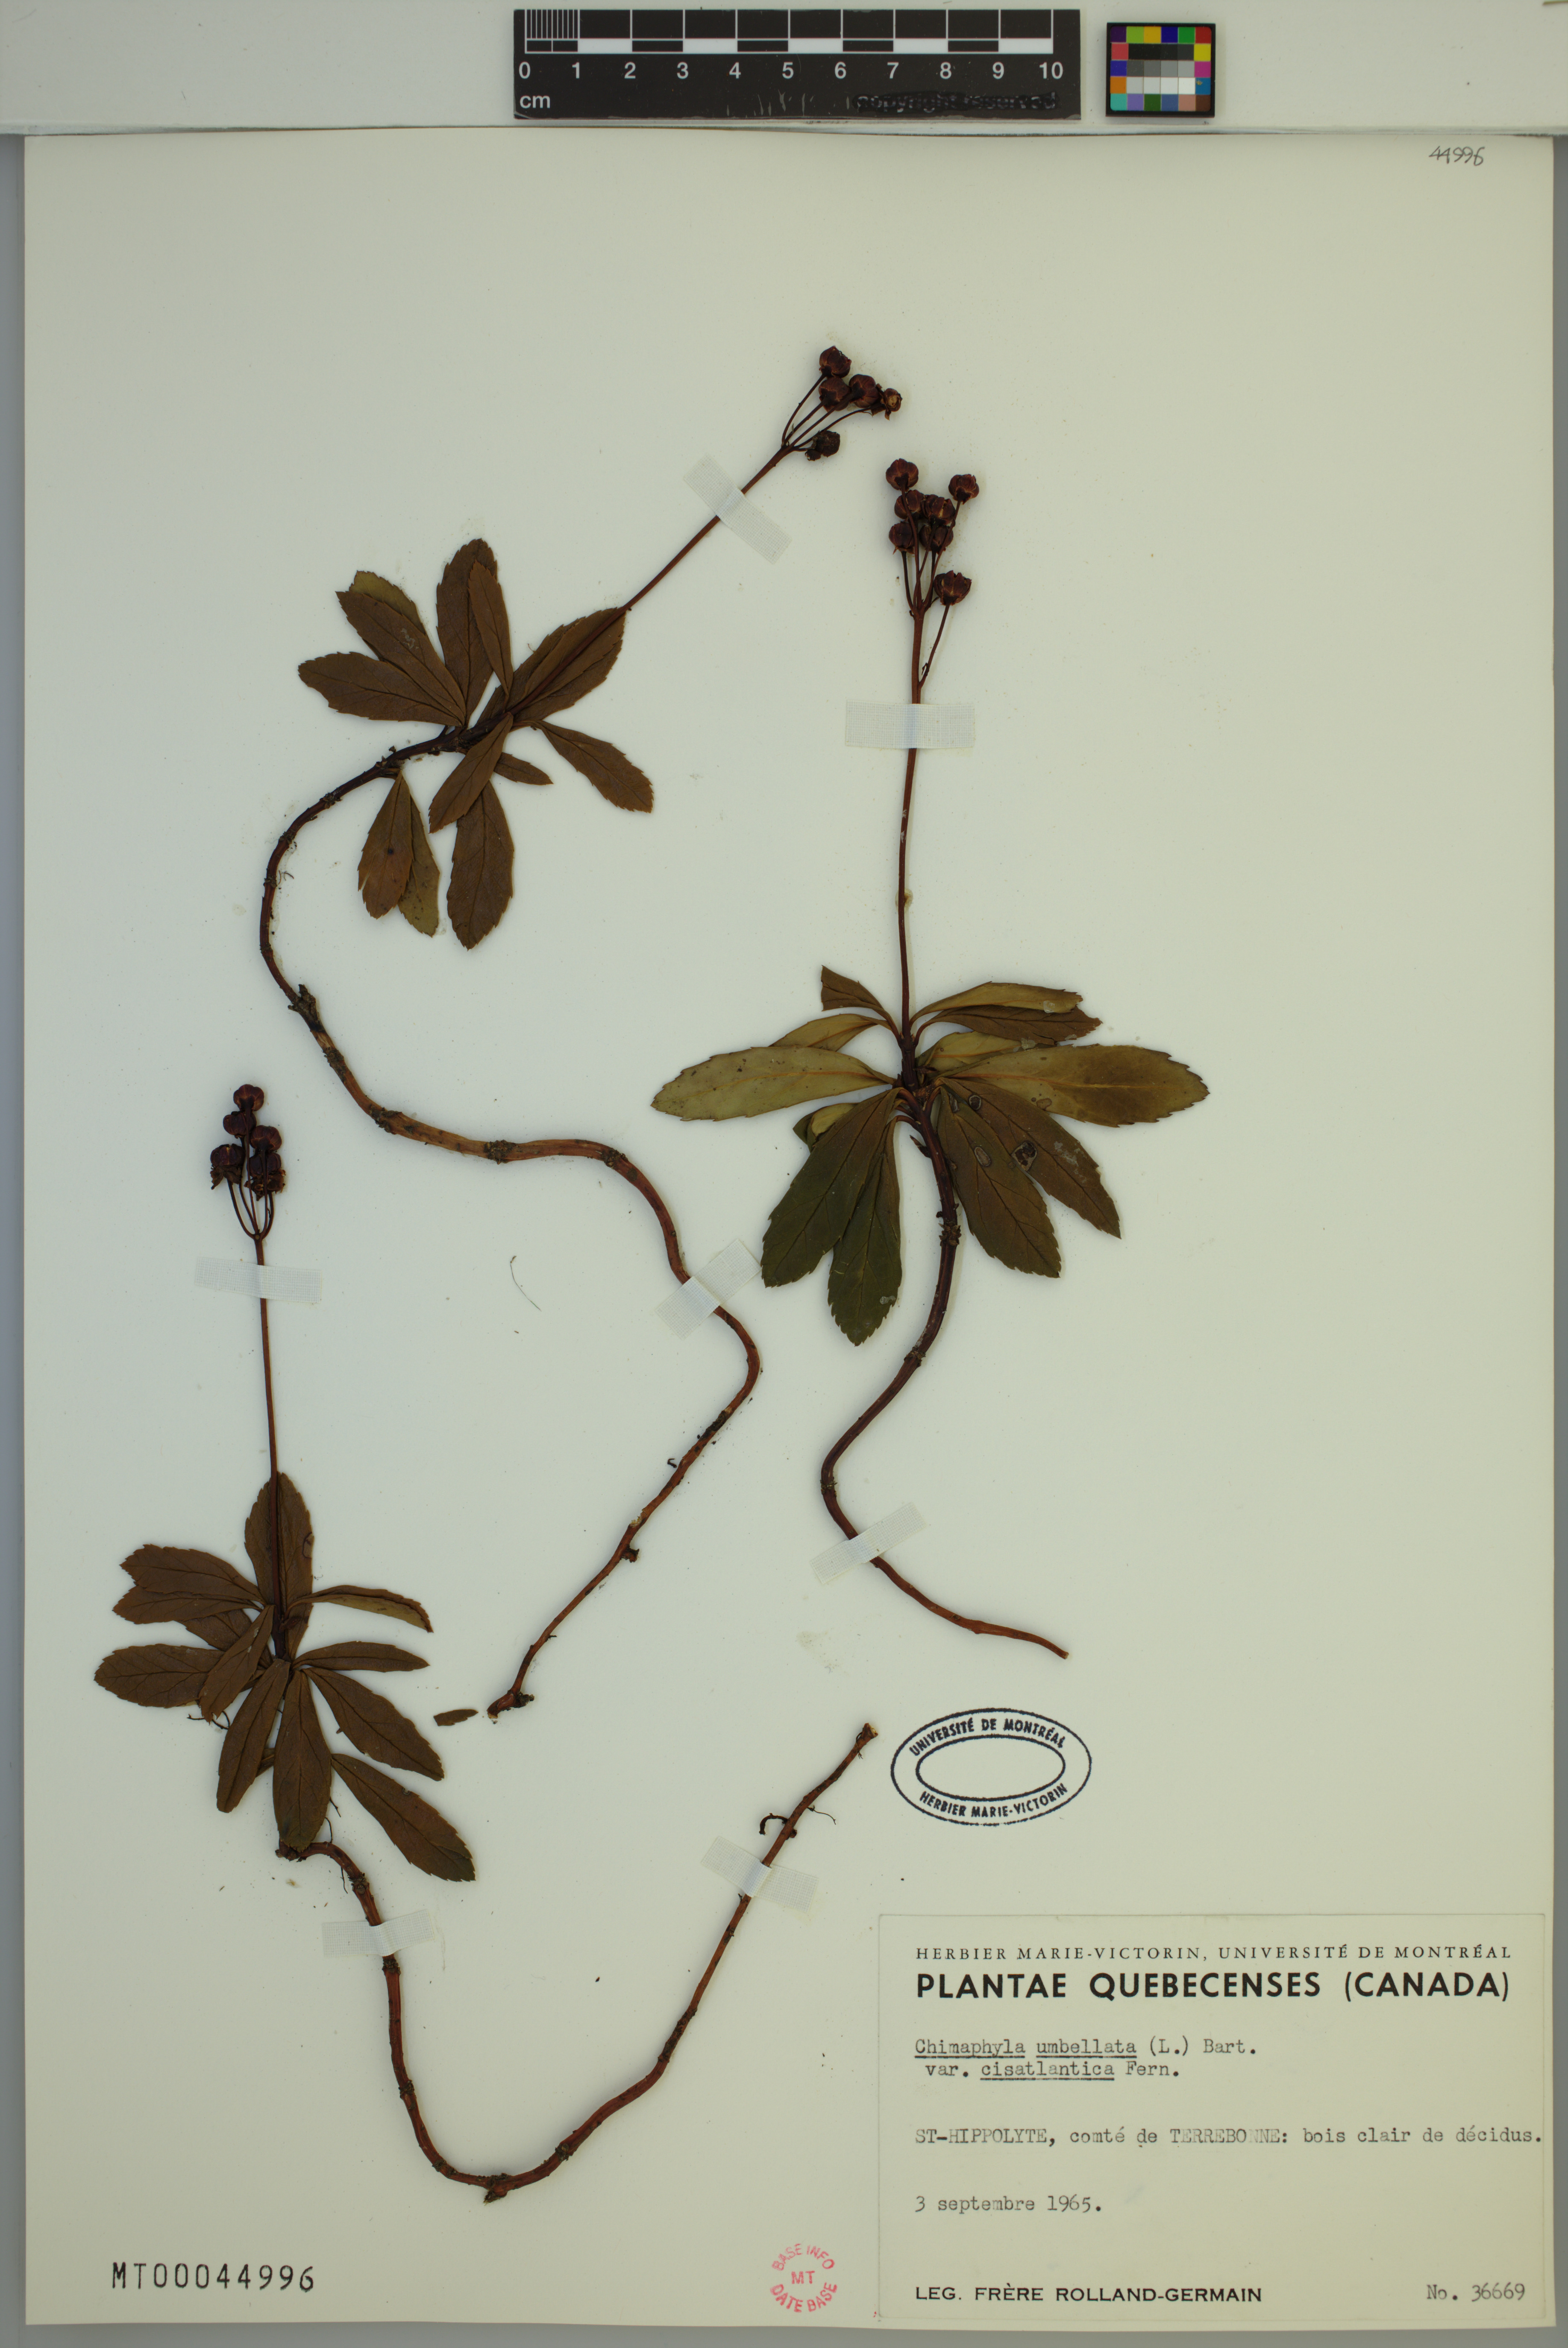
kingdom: Plantae
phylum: Tracheophyta
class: Magnoliopsida
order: Ericales
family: Ericaceae
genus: Chimaphila
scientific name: Chimaphila umbellata
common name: Pipsissewa
